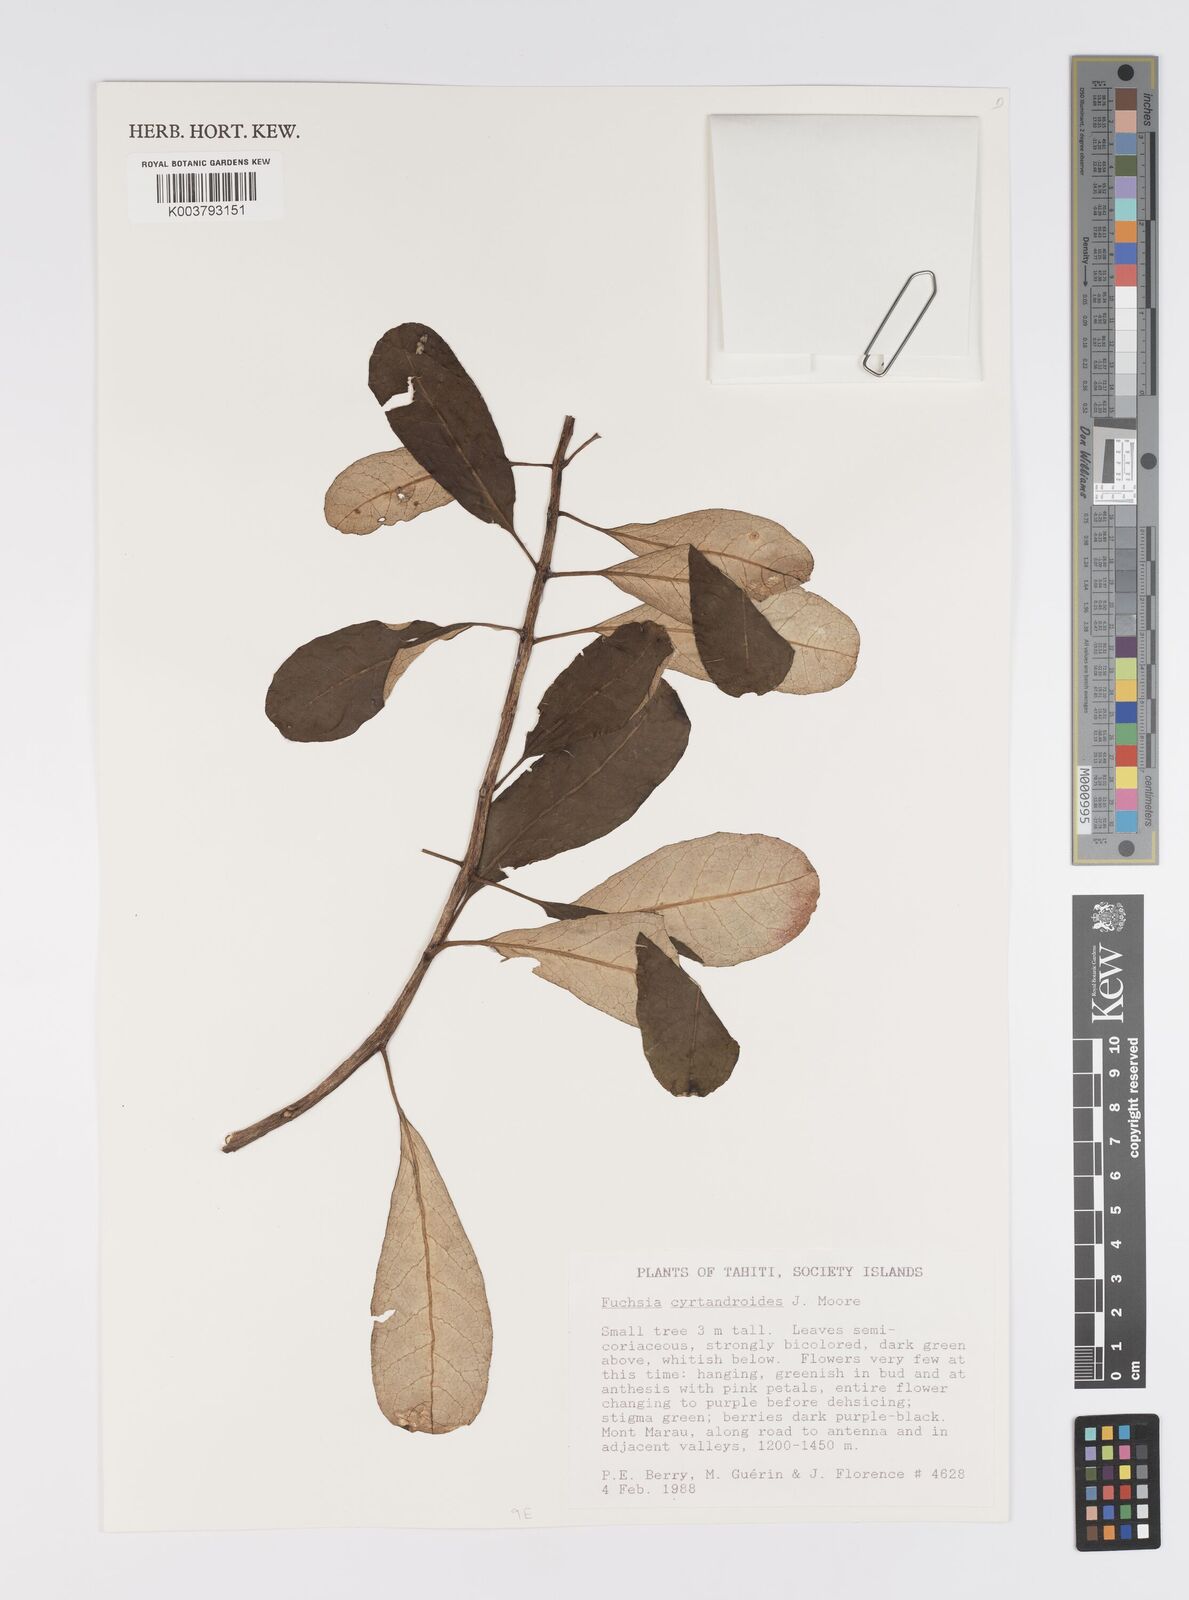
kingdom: Plantae
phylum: Tracheophyta
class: Magnoliopsida
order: Myrtales
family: Onagraceae
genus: Fuchsia
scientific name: Fuchsia cyrtandroides
